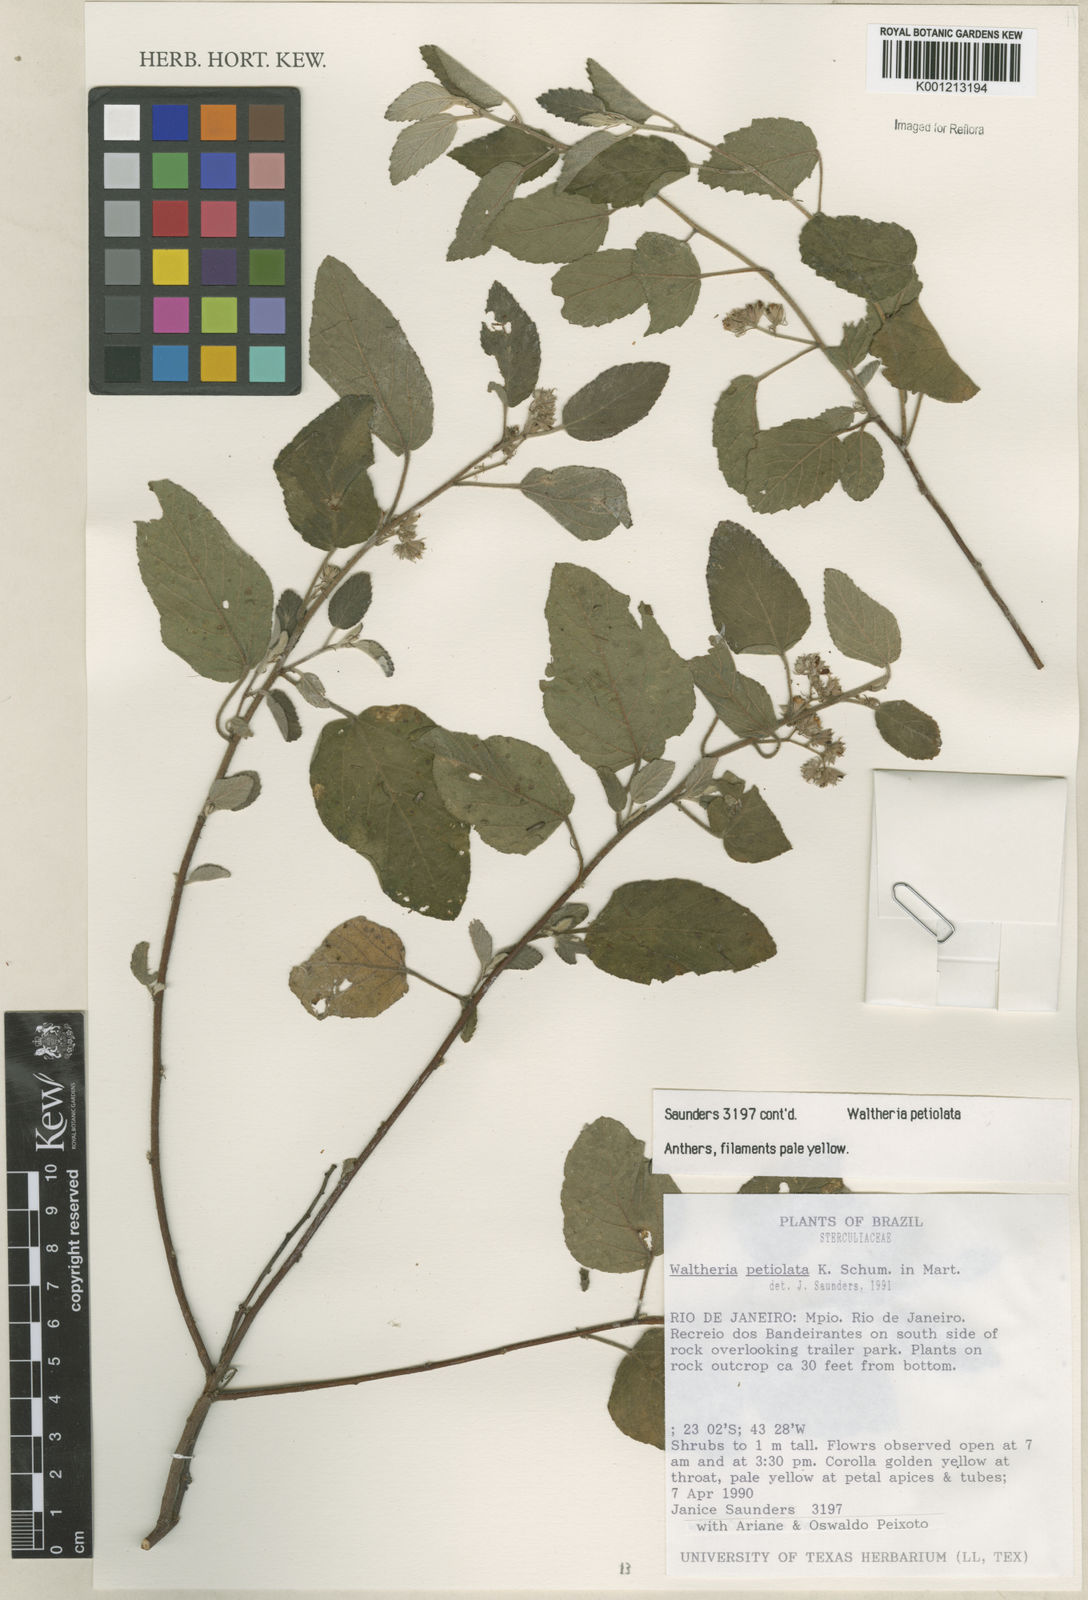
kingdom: Plantae
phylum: Tracheophyta
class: Magnoliopsida
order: Malvales
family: Malvaceae
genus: Waltheria
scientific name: Waltheria petiolata
